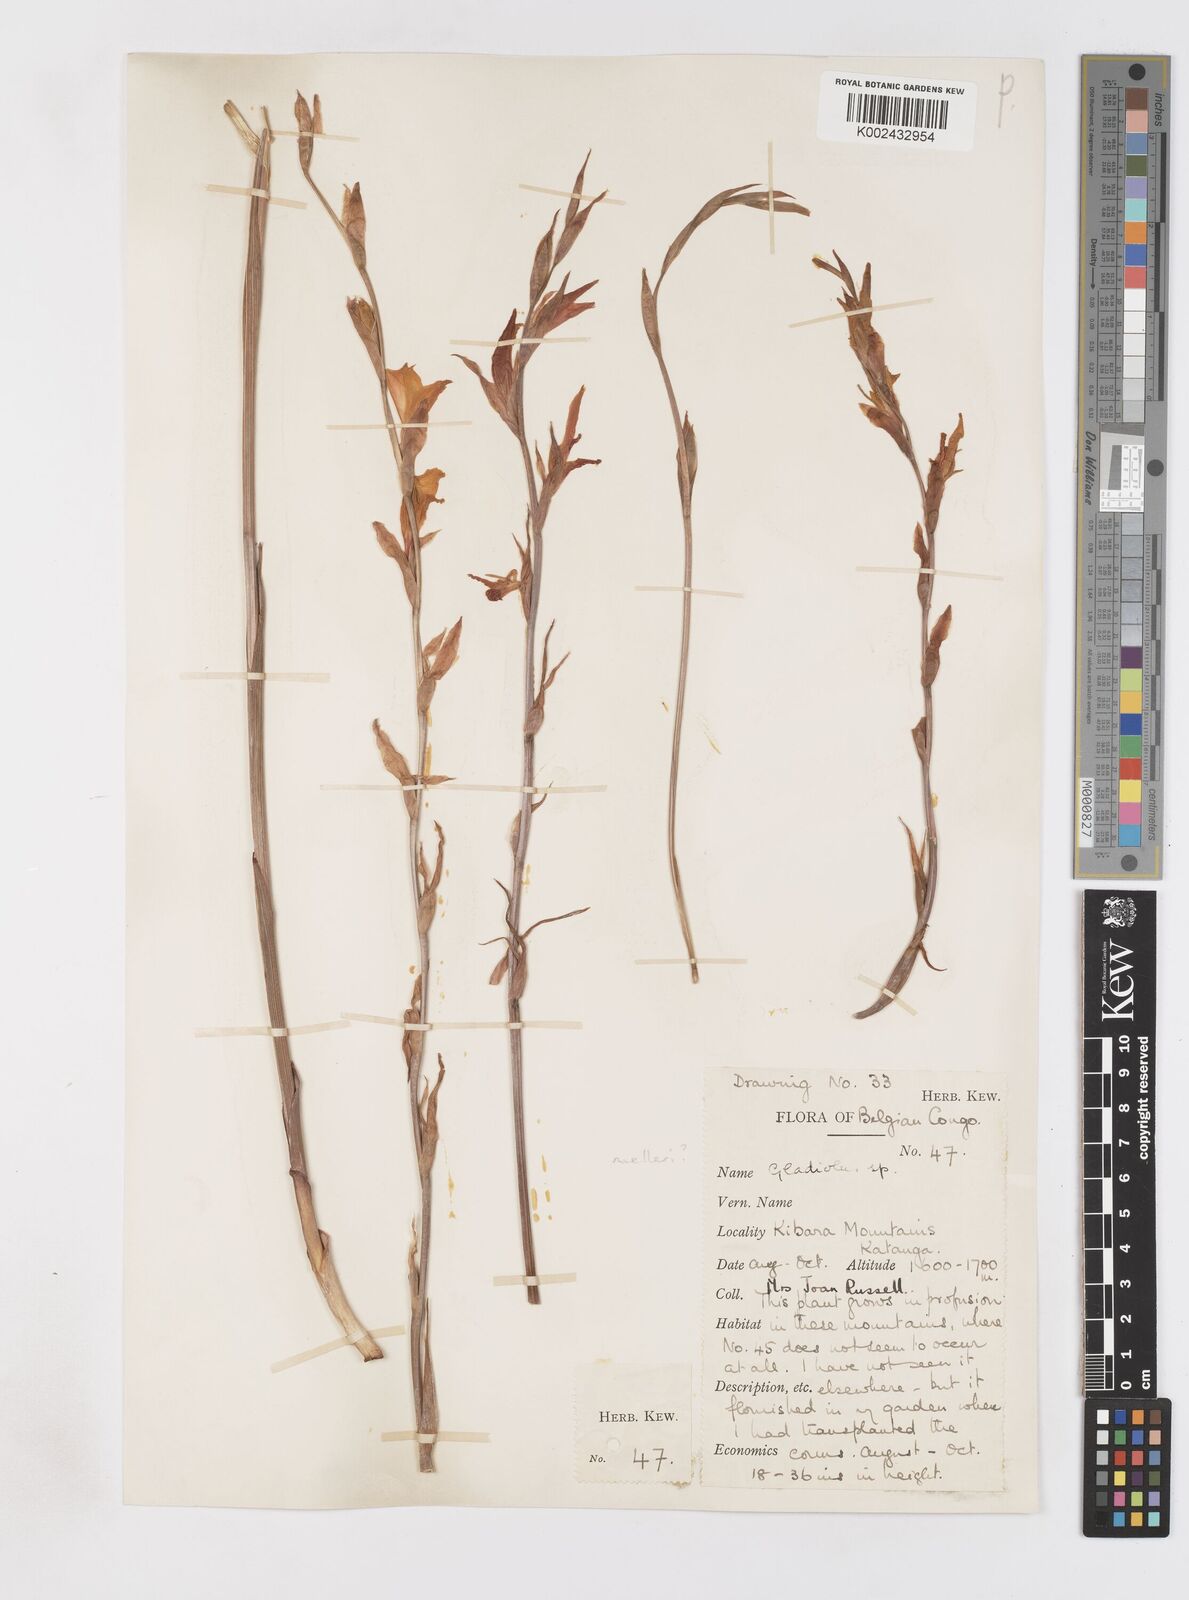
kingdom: Plantae
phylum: Tracheophyta
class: Liliopsida
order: Asparagales
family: Iridaceae
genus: Gladiolus
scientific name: Gladiolus melleri
